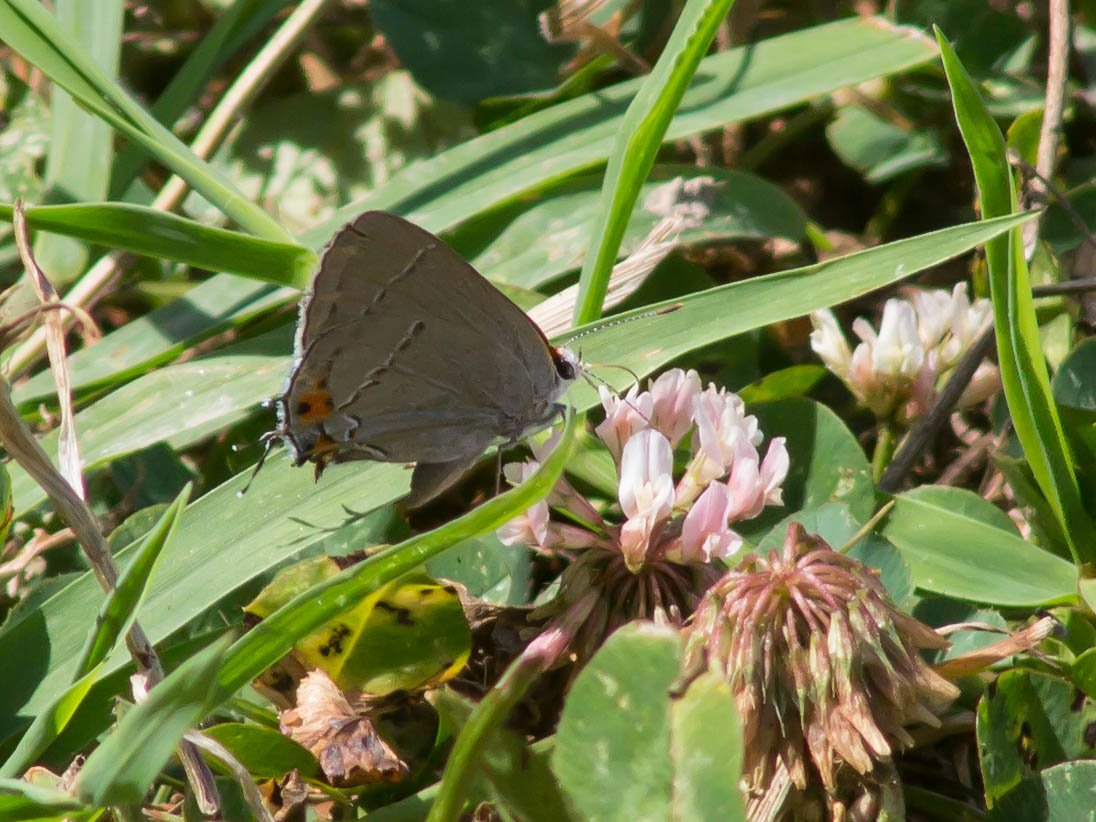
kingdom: Animalia
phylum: Arthropoda
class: Insecta
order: Lepidoptera
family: Lycaenidae
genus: Strymon
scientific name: Strymon melinus
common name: Gray Hairstreak
